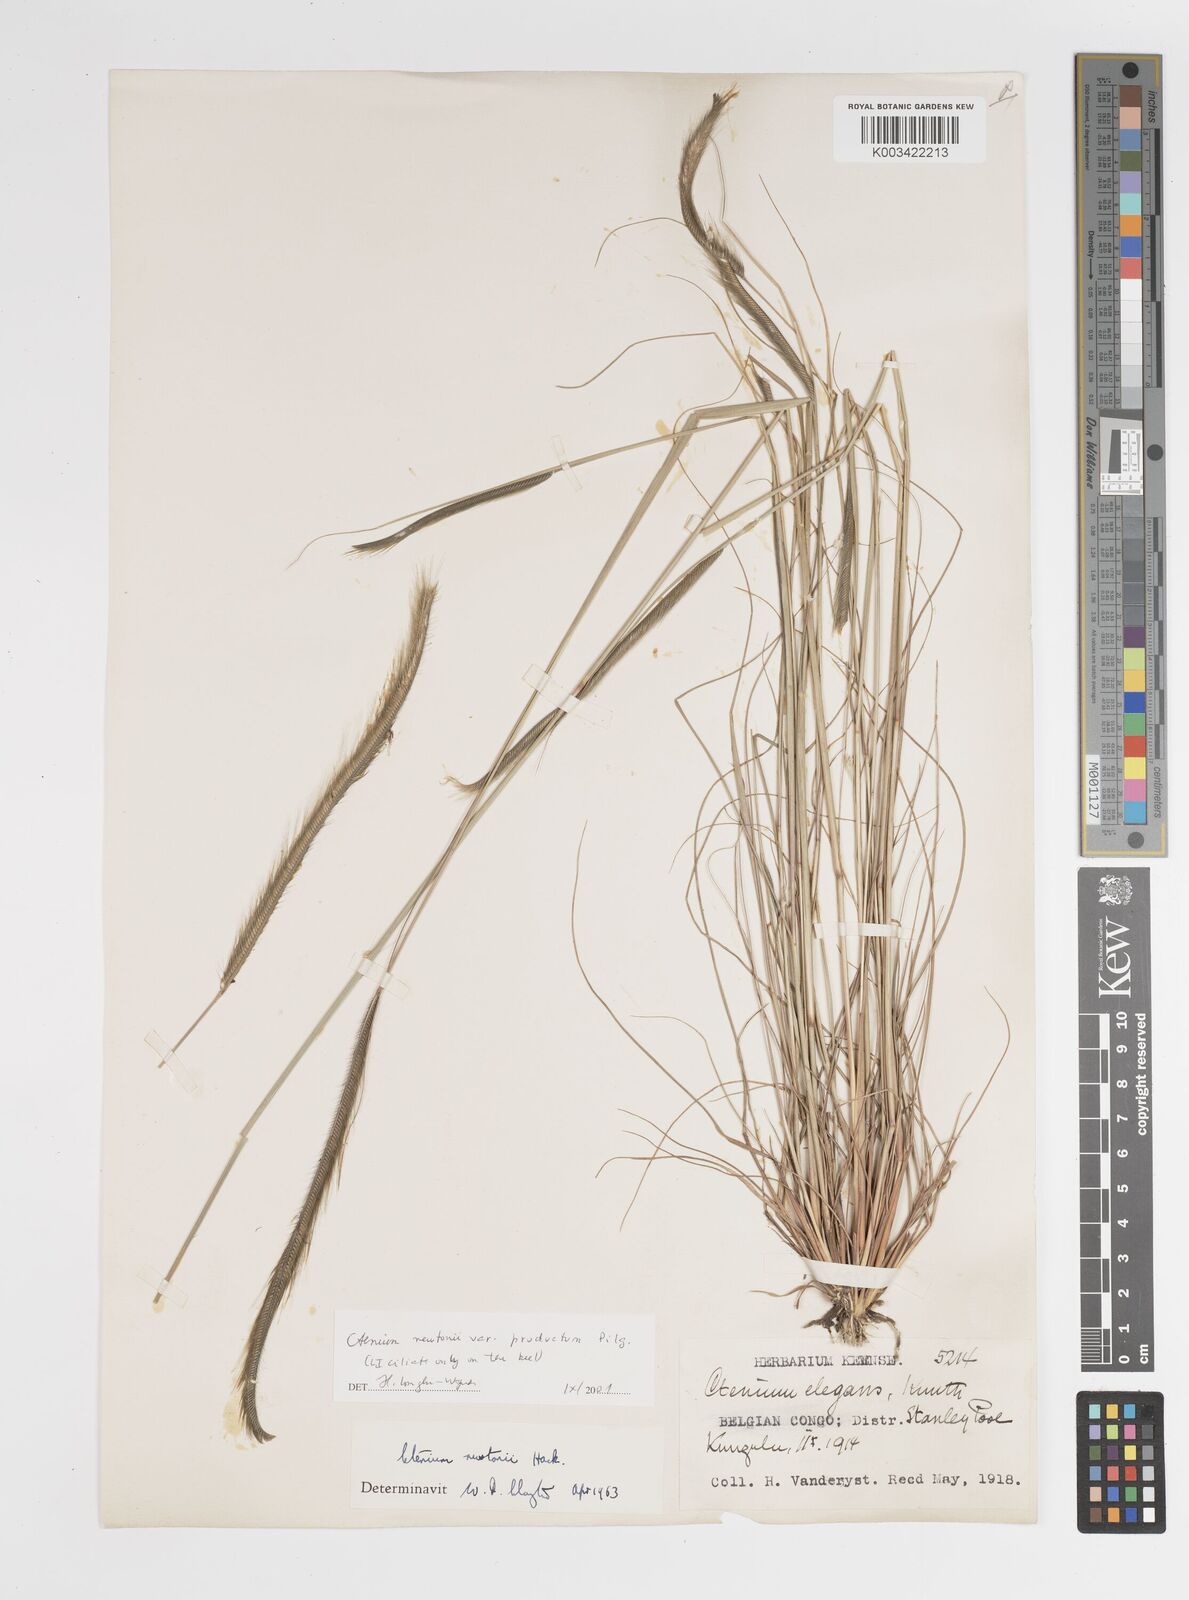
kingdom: Plantae
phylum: Tracheophyta
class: Liliopsida
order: Poales
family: Poaceae
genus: Ctenium
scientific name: Ctenium newtonii
